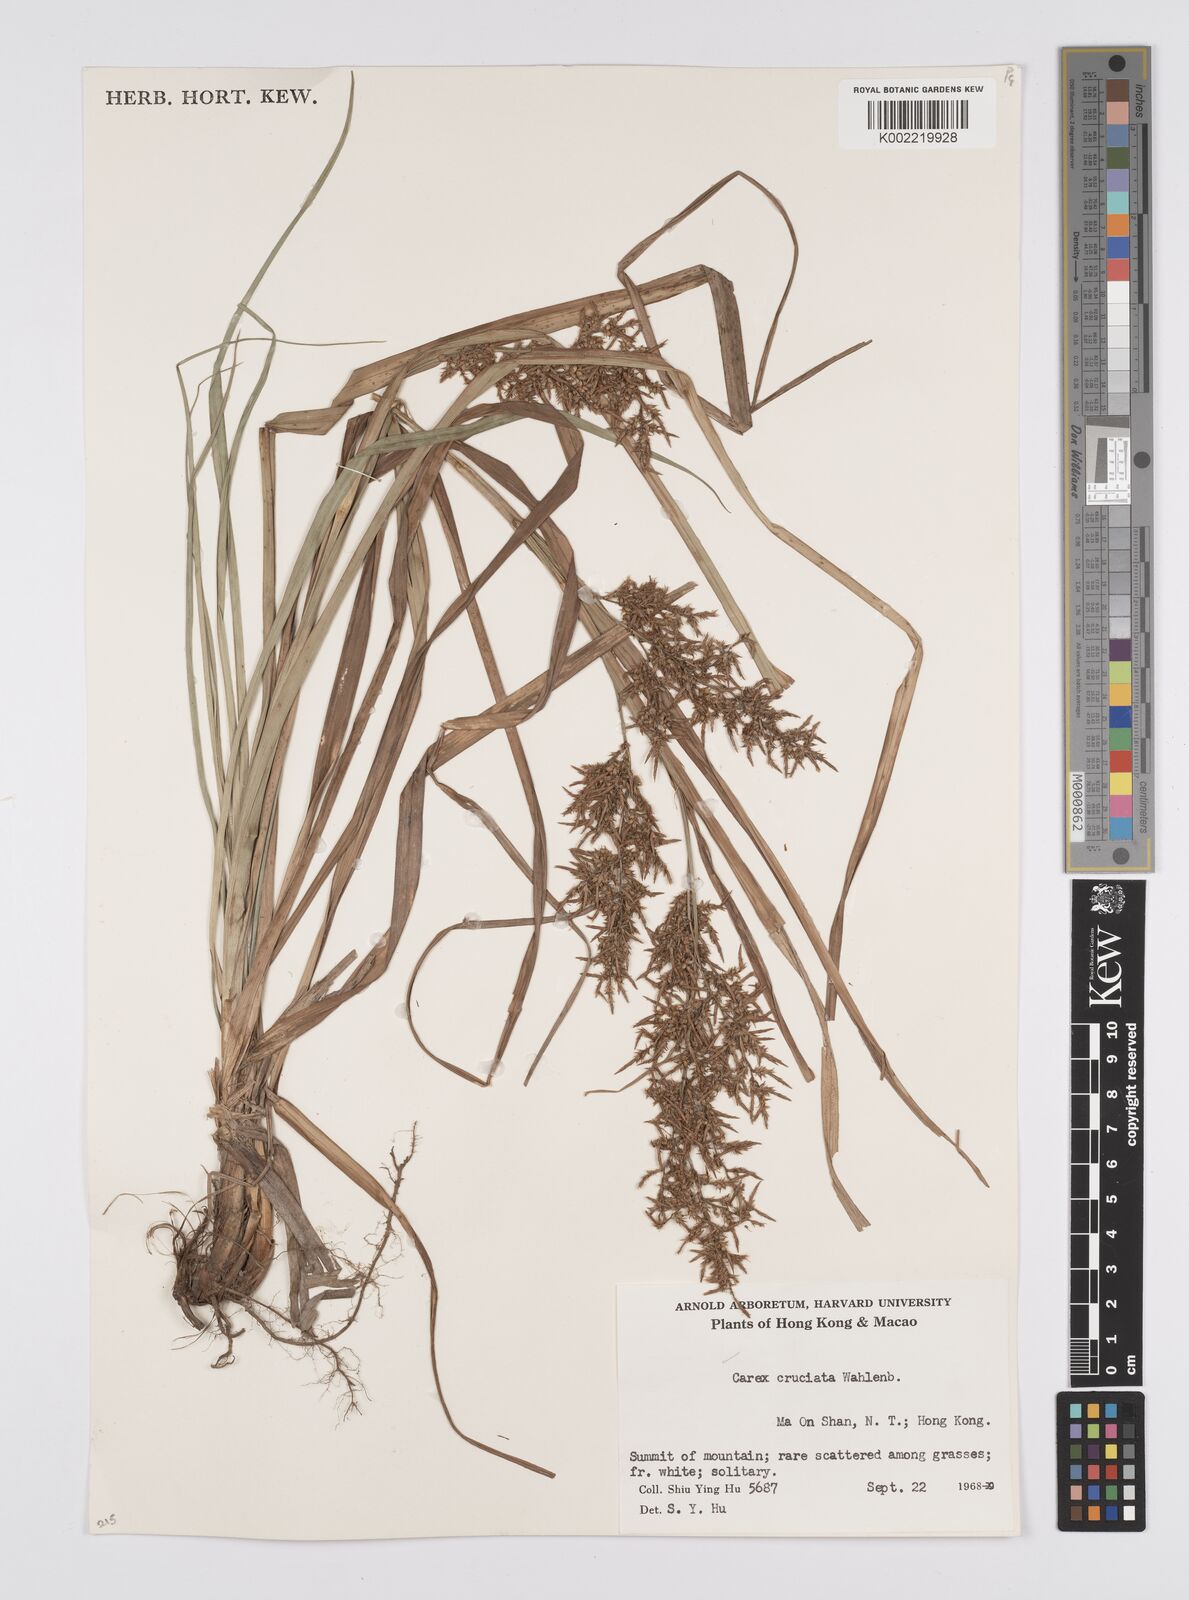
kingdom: Plantae
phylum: Tracheophyta
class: Liliopsida
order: Poales
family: Cyperaceae
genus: Carex
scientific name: Carex cruciata
